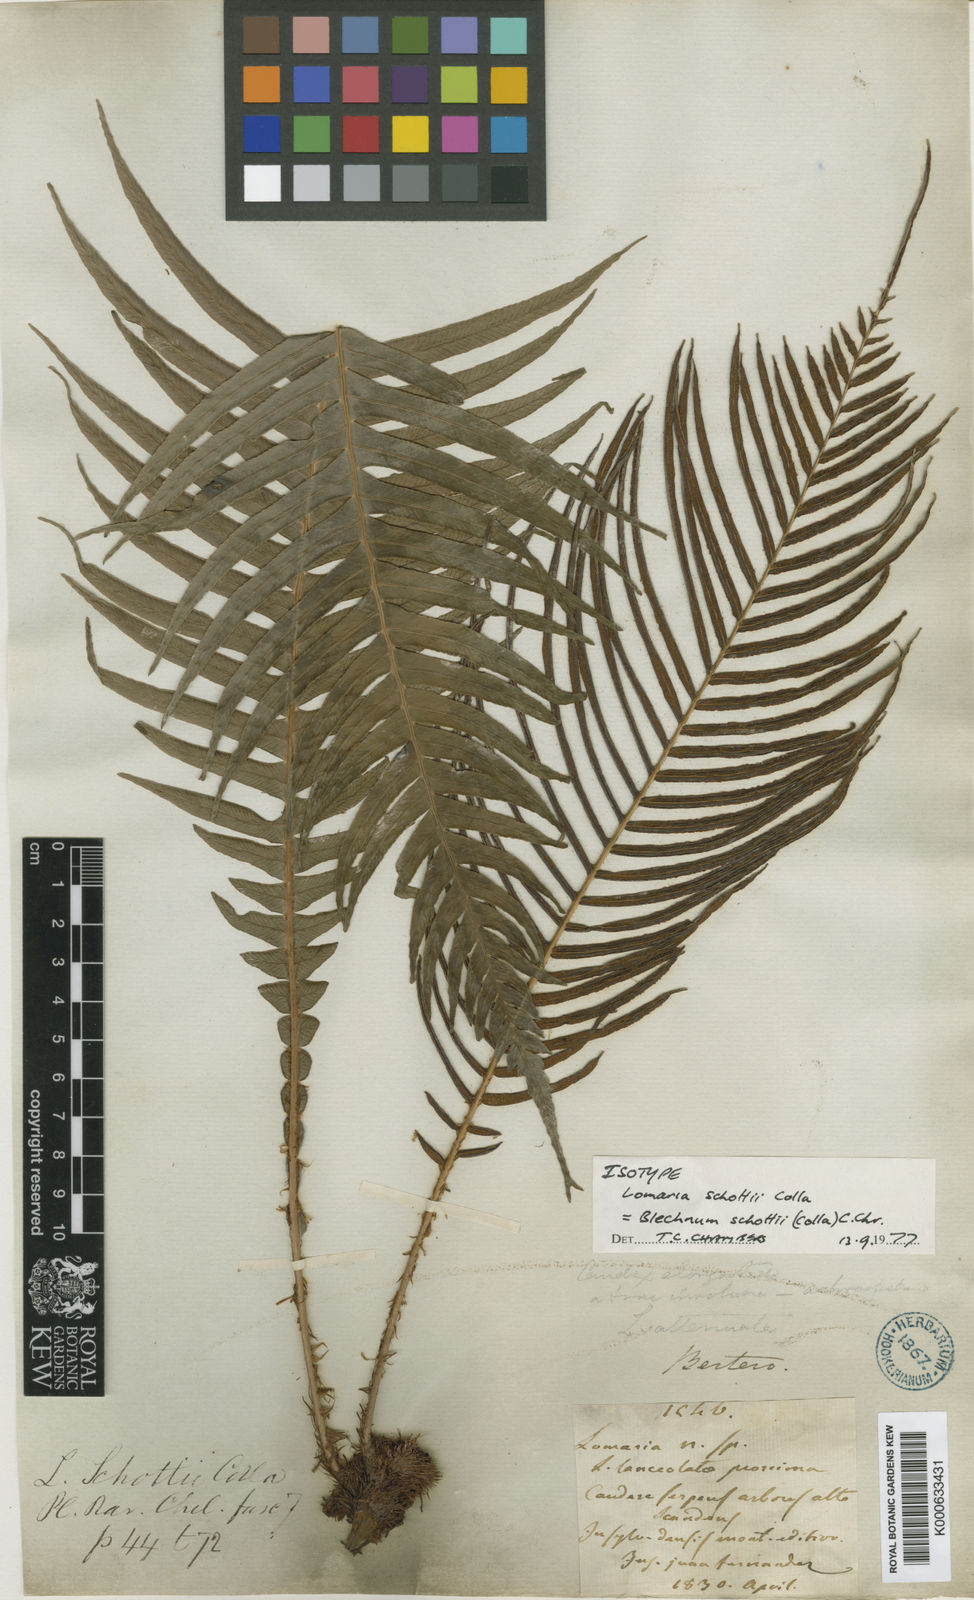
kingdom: Plantae
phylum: Tracheophyta
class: Polypodiopsida
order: Polypodiales
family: Blechnaceae
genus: Lomaridium
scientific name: Lomaridium schottii
